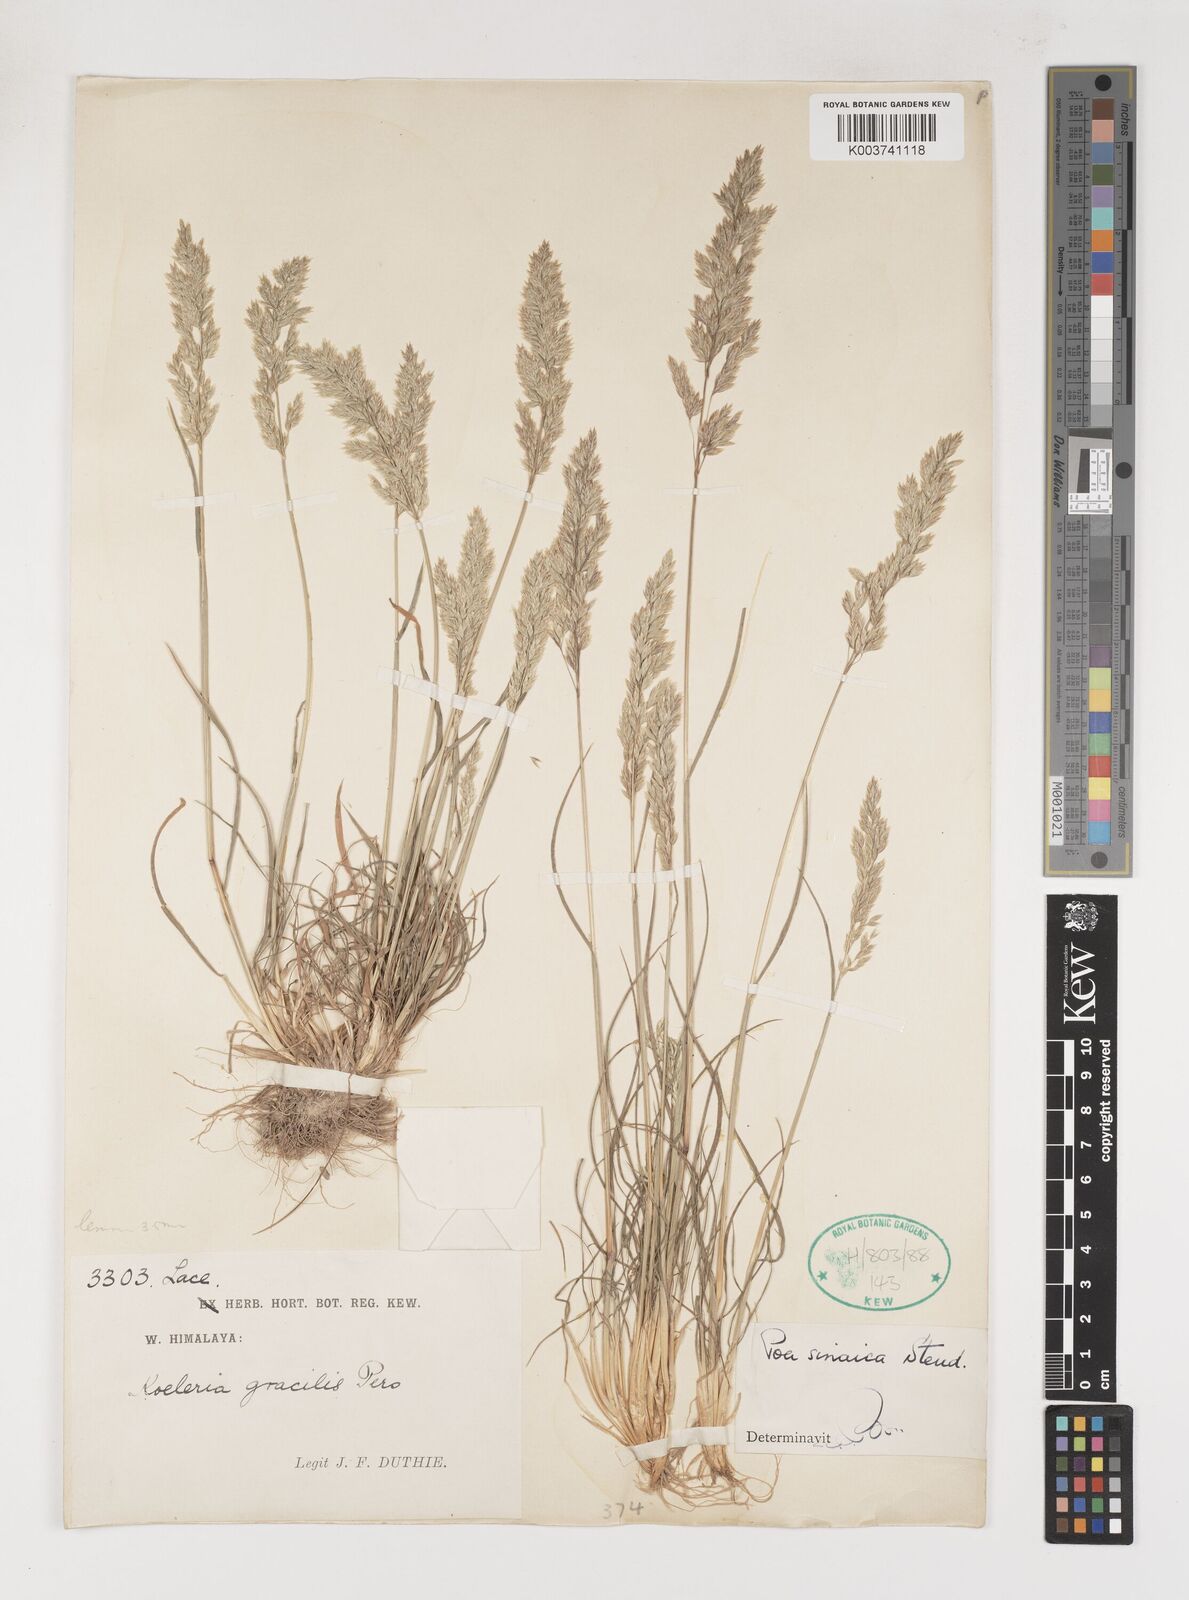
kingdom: Plantae
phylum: Tracheophyta
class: Liliopsida
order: Poales
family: Poaceae
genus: Poa
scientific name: Poa sinaica
